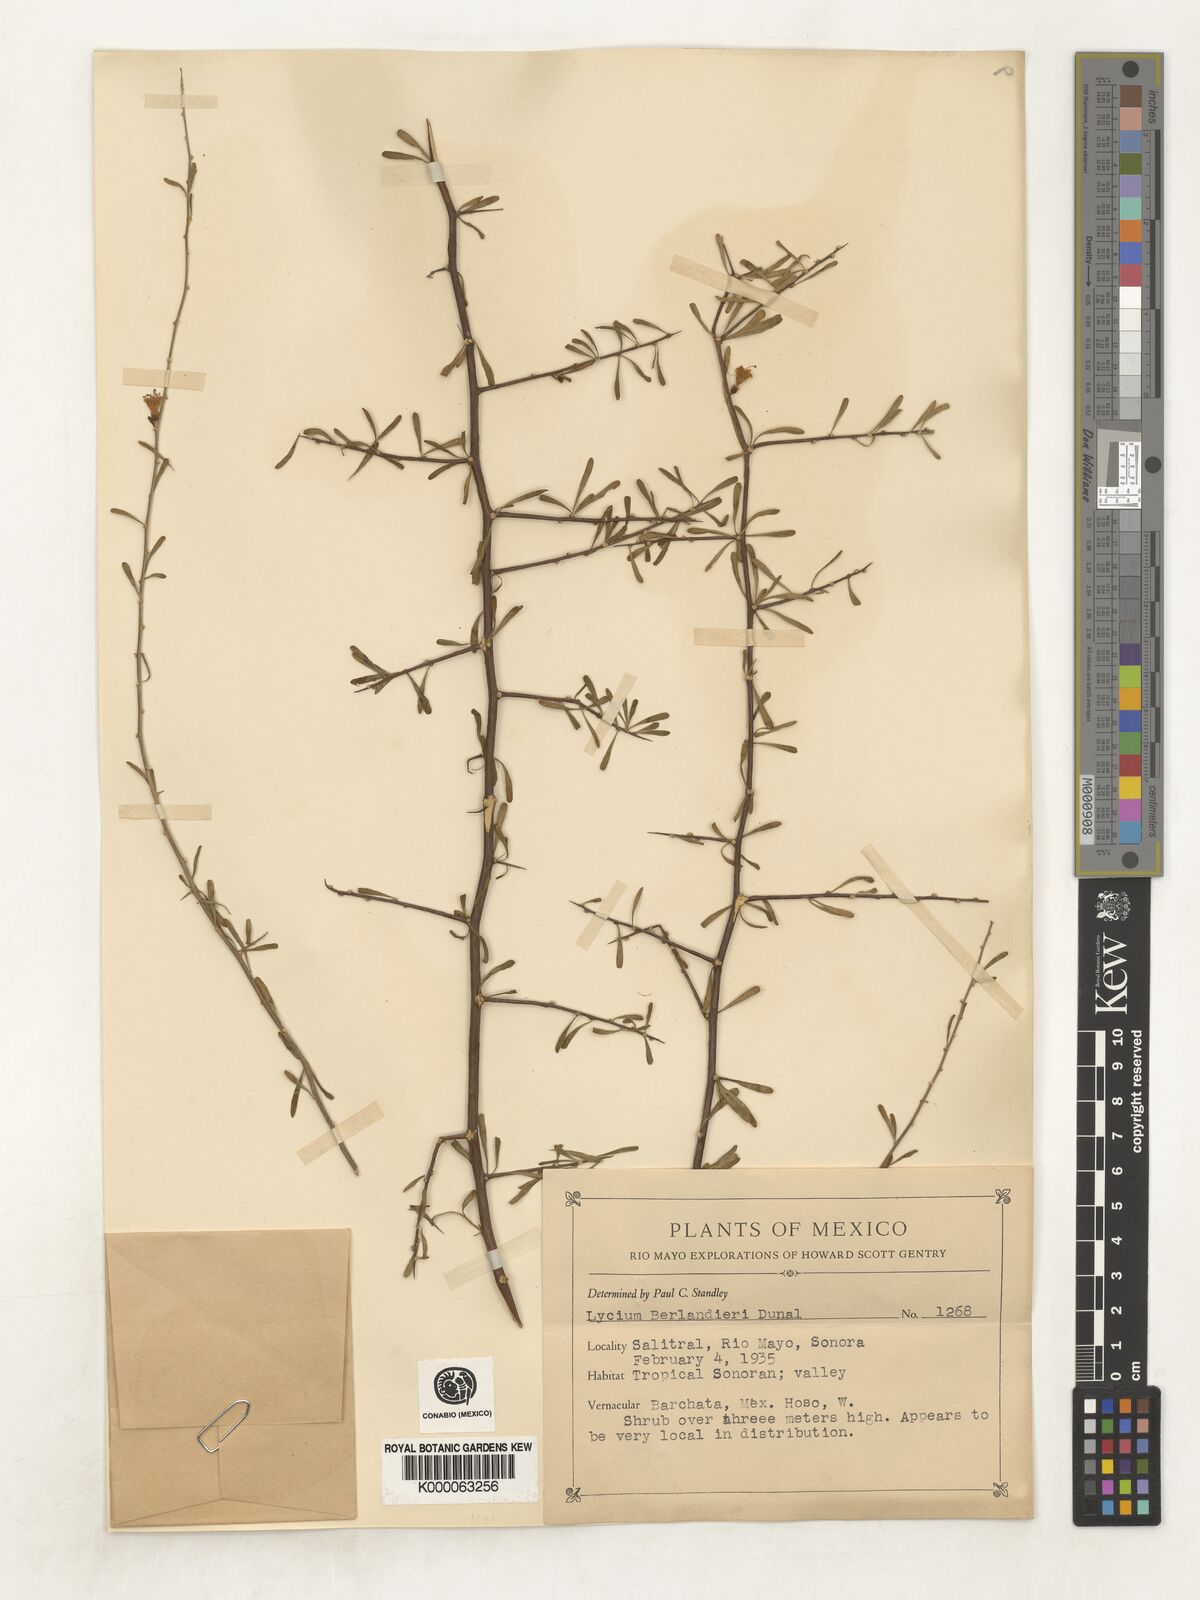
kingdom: Plantae
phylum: Tracheophyta
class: Magnoliopsida
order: Solanales
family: Solanaceae
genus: Lycium
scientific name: Lycium berlandieri
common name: Berlandier wolfberry
